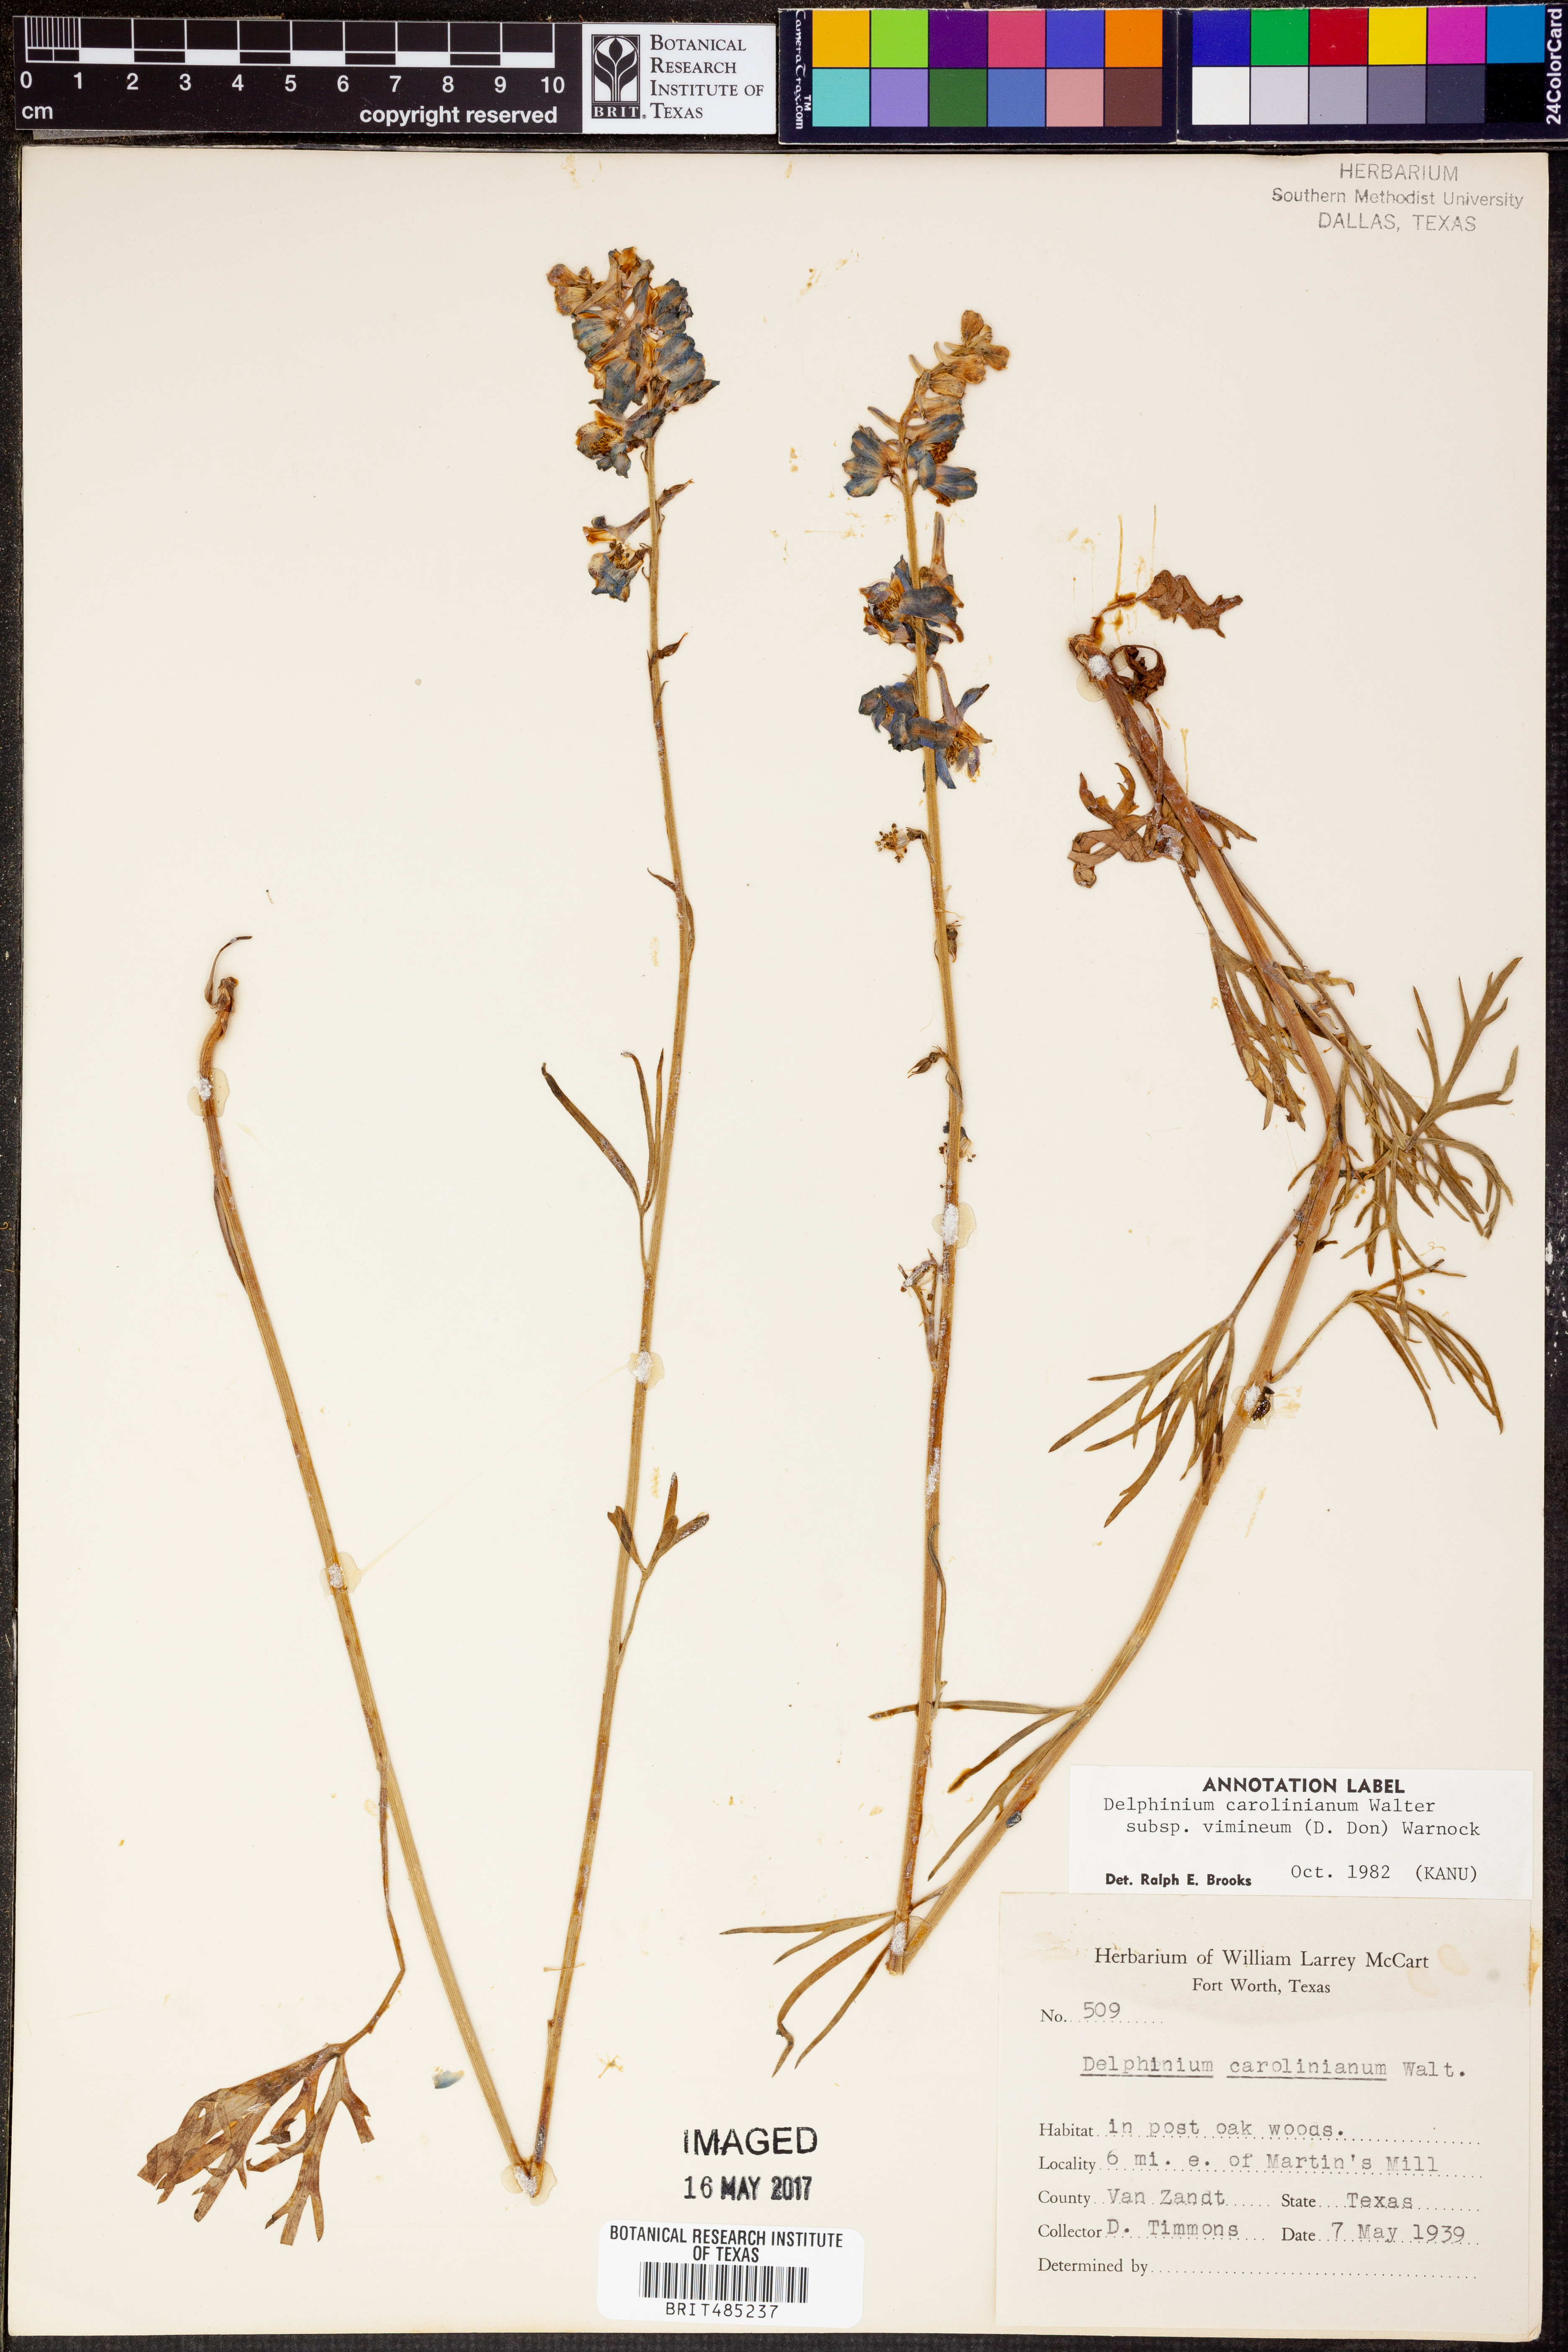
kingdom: Plantae
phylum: Tracheophyta
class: Magnoliopsida
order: Ranunculales
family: Ranunculaceae
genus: Delphinium
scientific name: Delphinium carolinianum
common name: Carolina larkspur
